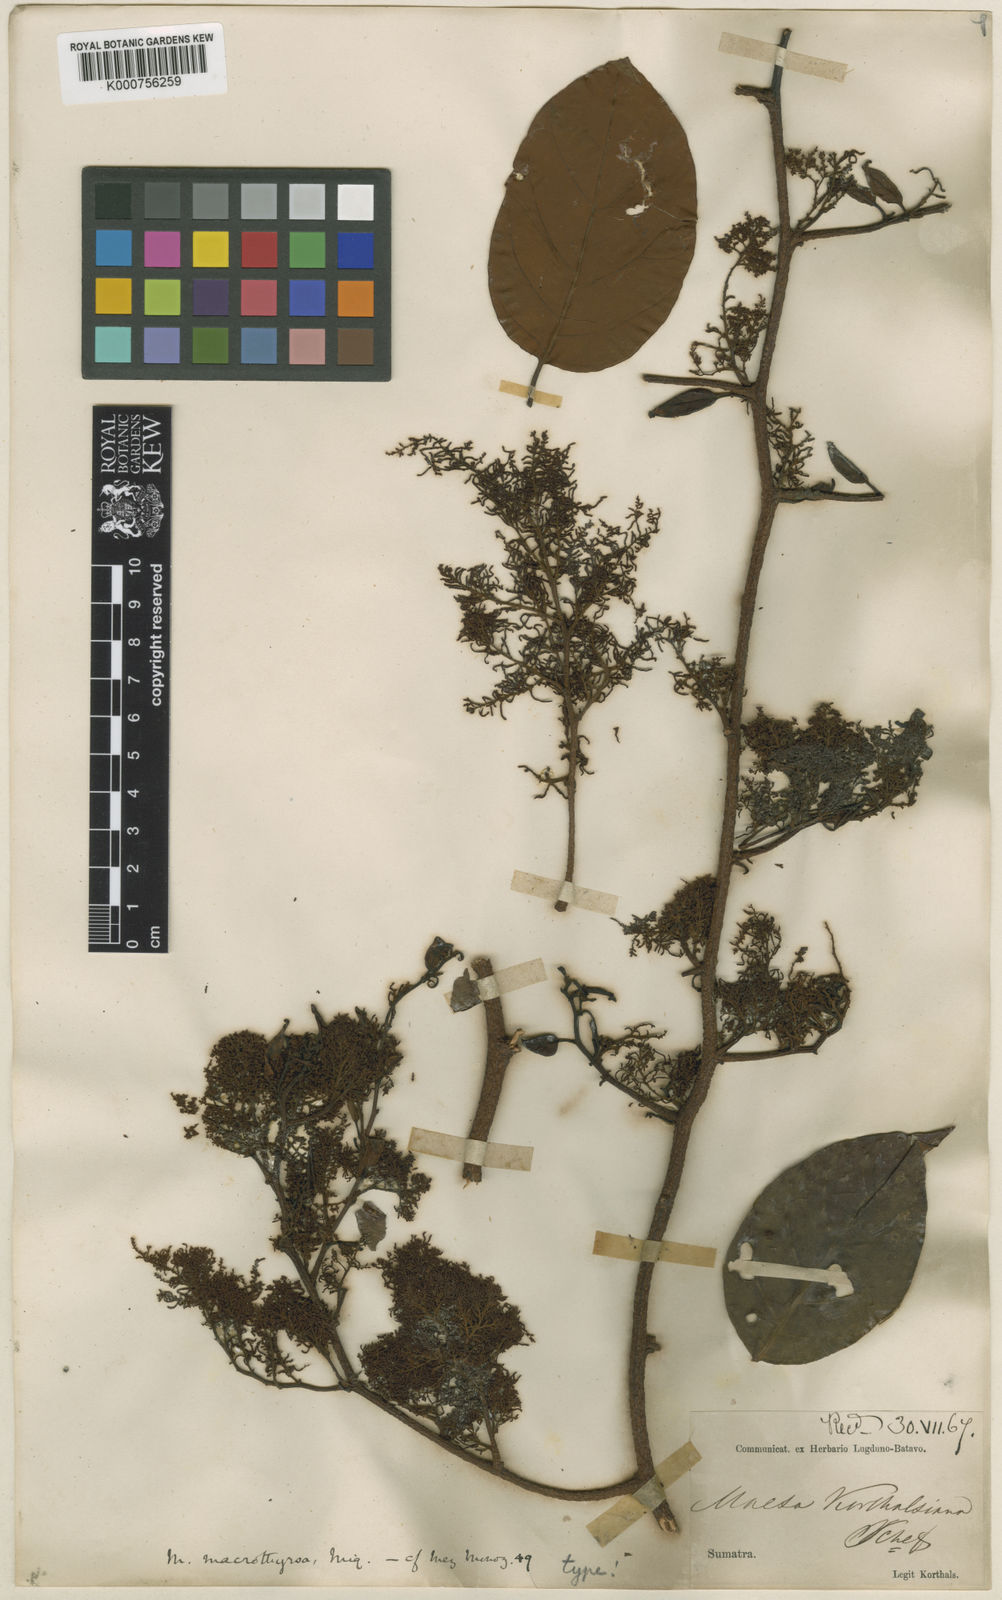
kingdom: Plantae
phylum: Tracheophyta
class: Magnoliopsida
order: Ericales
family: Primulaceae
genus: Maesa
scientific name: Maesa macrothyrsa
